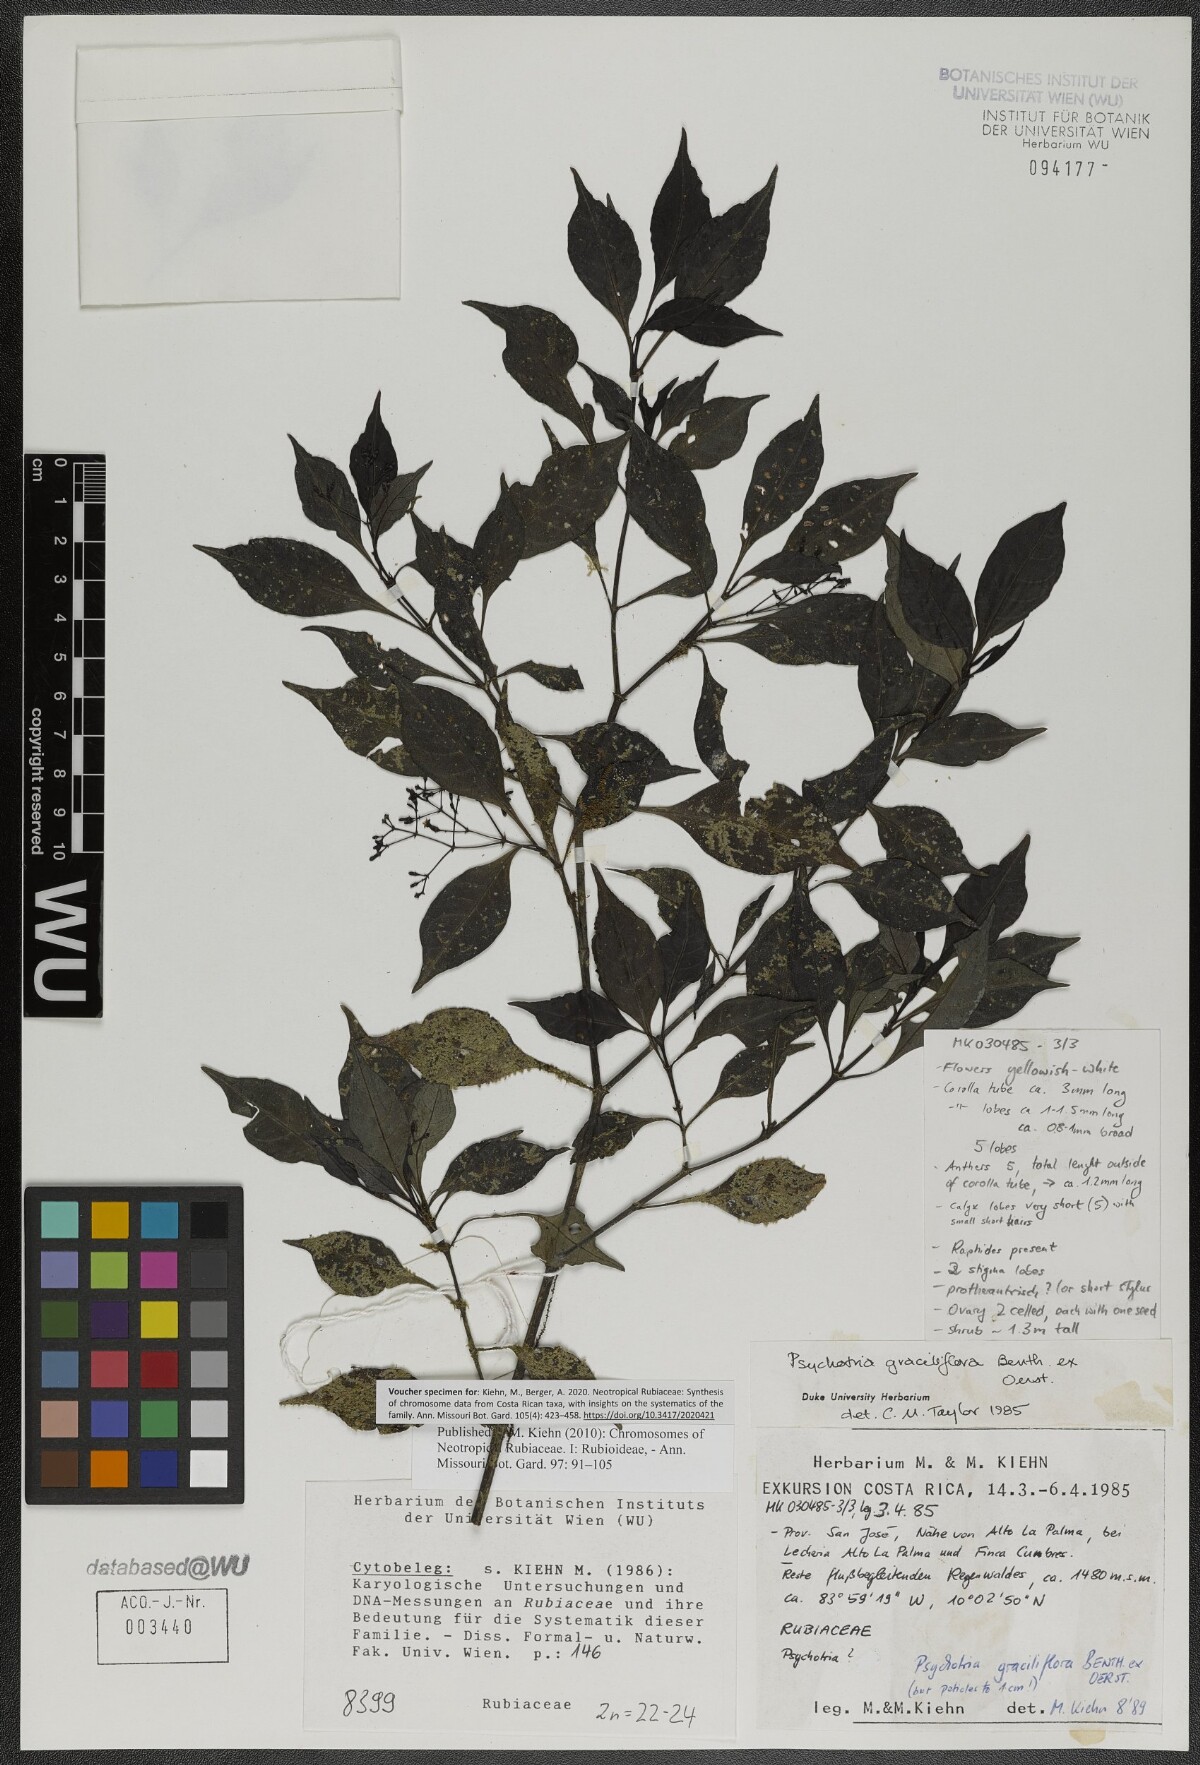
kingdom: Plantae
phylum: Tracheophyta
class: Magnoliopsida
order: Gentianales
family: Rubiaceae
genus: Psychotria
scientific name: Psychotria biaristata
